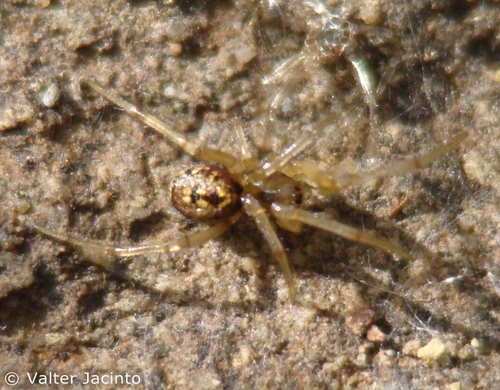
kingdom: Animalia
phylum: Arthropoda
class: Arachnida
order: Araneae
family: Theridiidae
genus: Enoplognatha
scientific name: Enoplognatha
